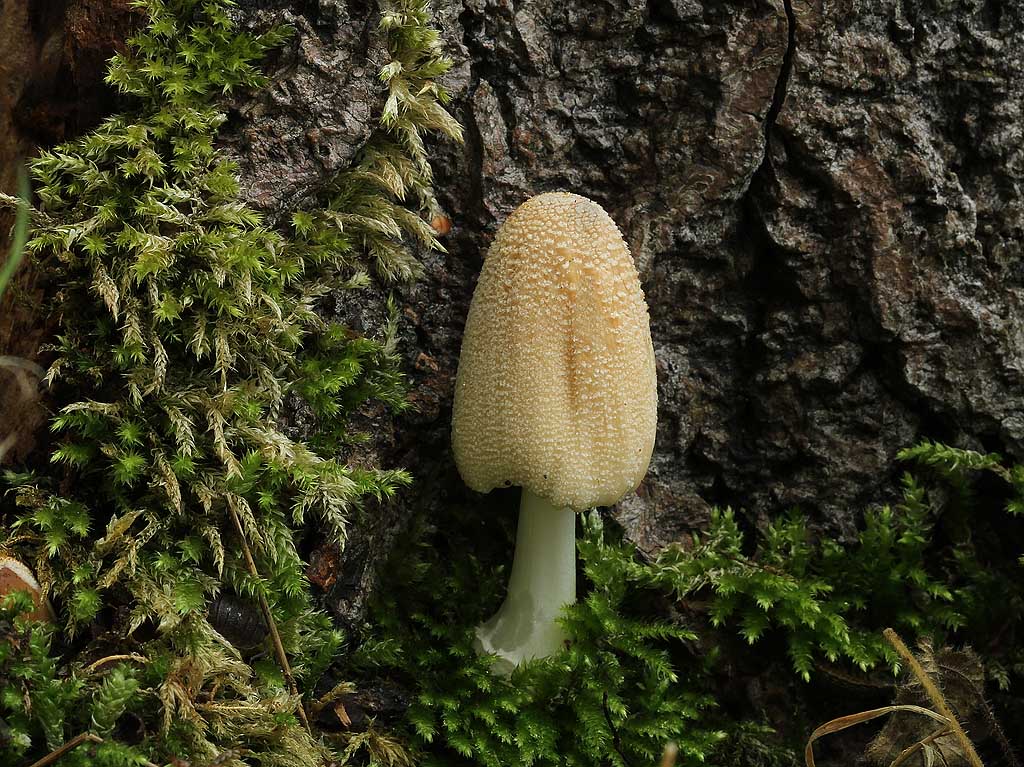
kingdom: Fungi
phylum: Basidiomycota
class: Agaricomycetes
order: Agaricales
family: Psathyrellaceae
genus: Coprinellus
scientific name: Coprinellus domesticus
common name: hus-blækhat
